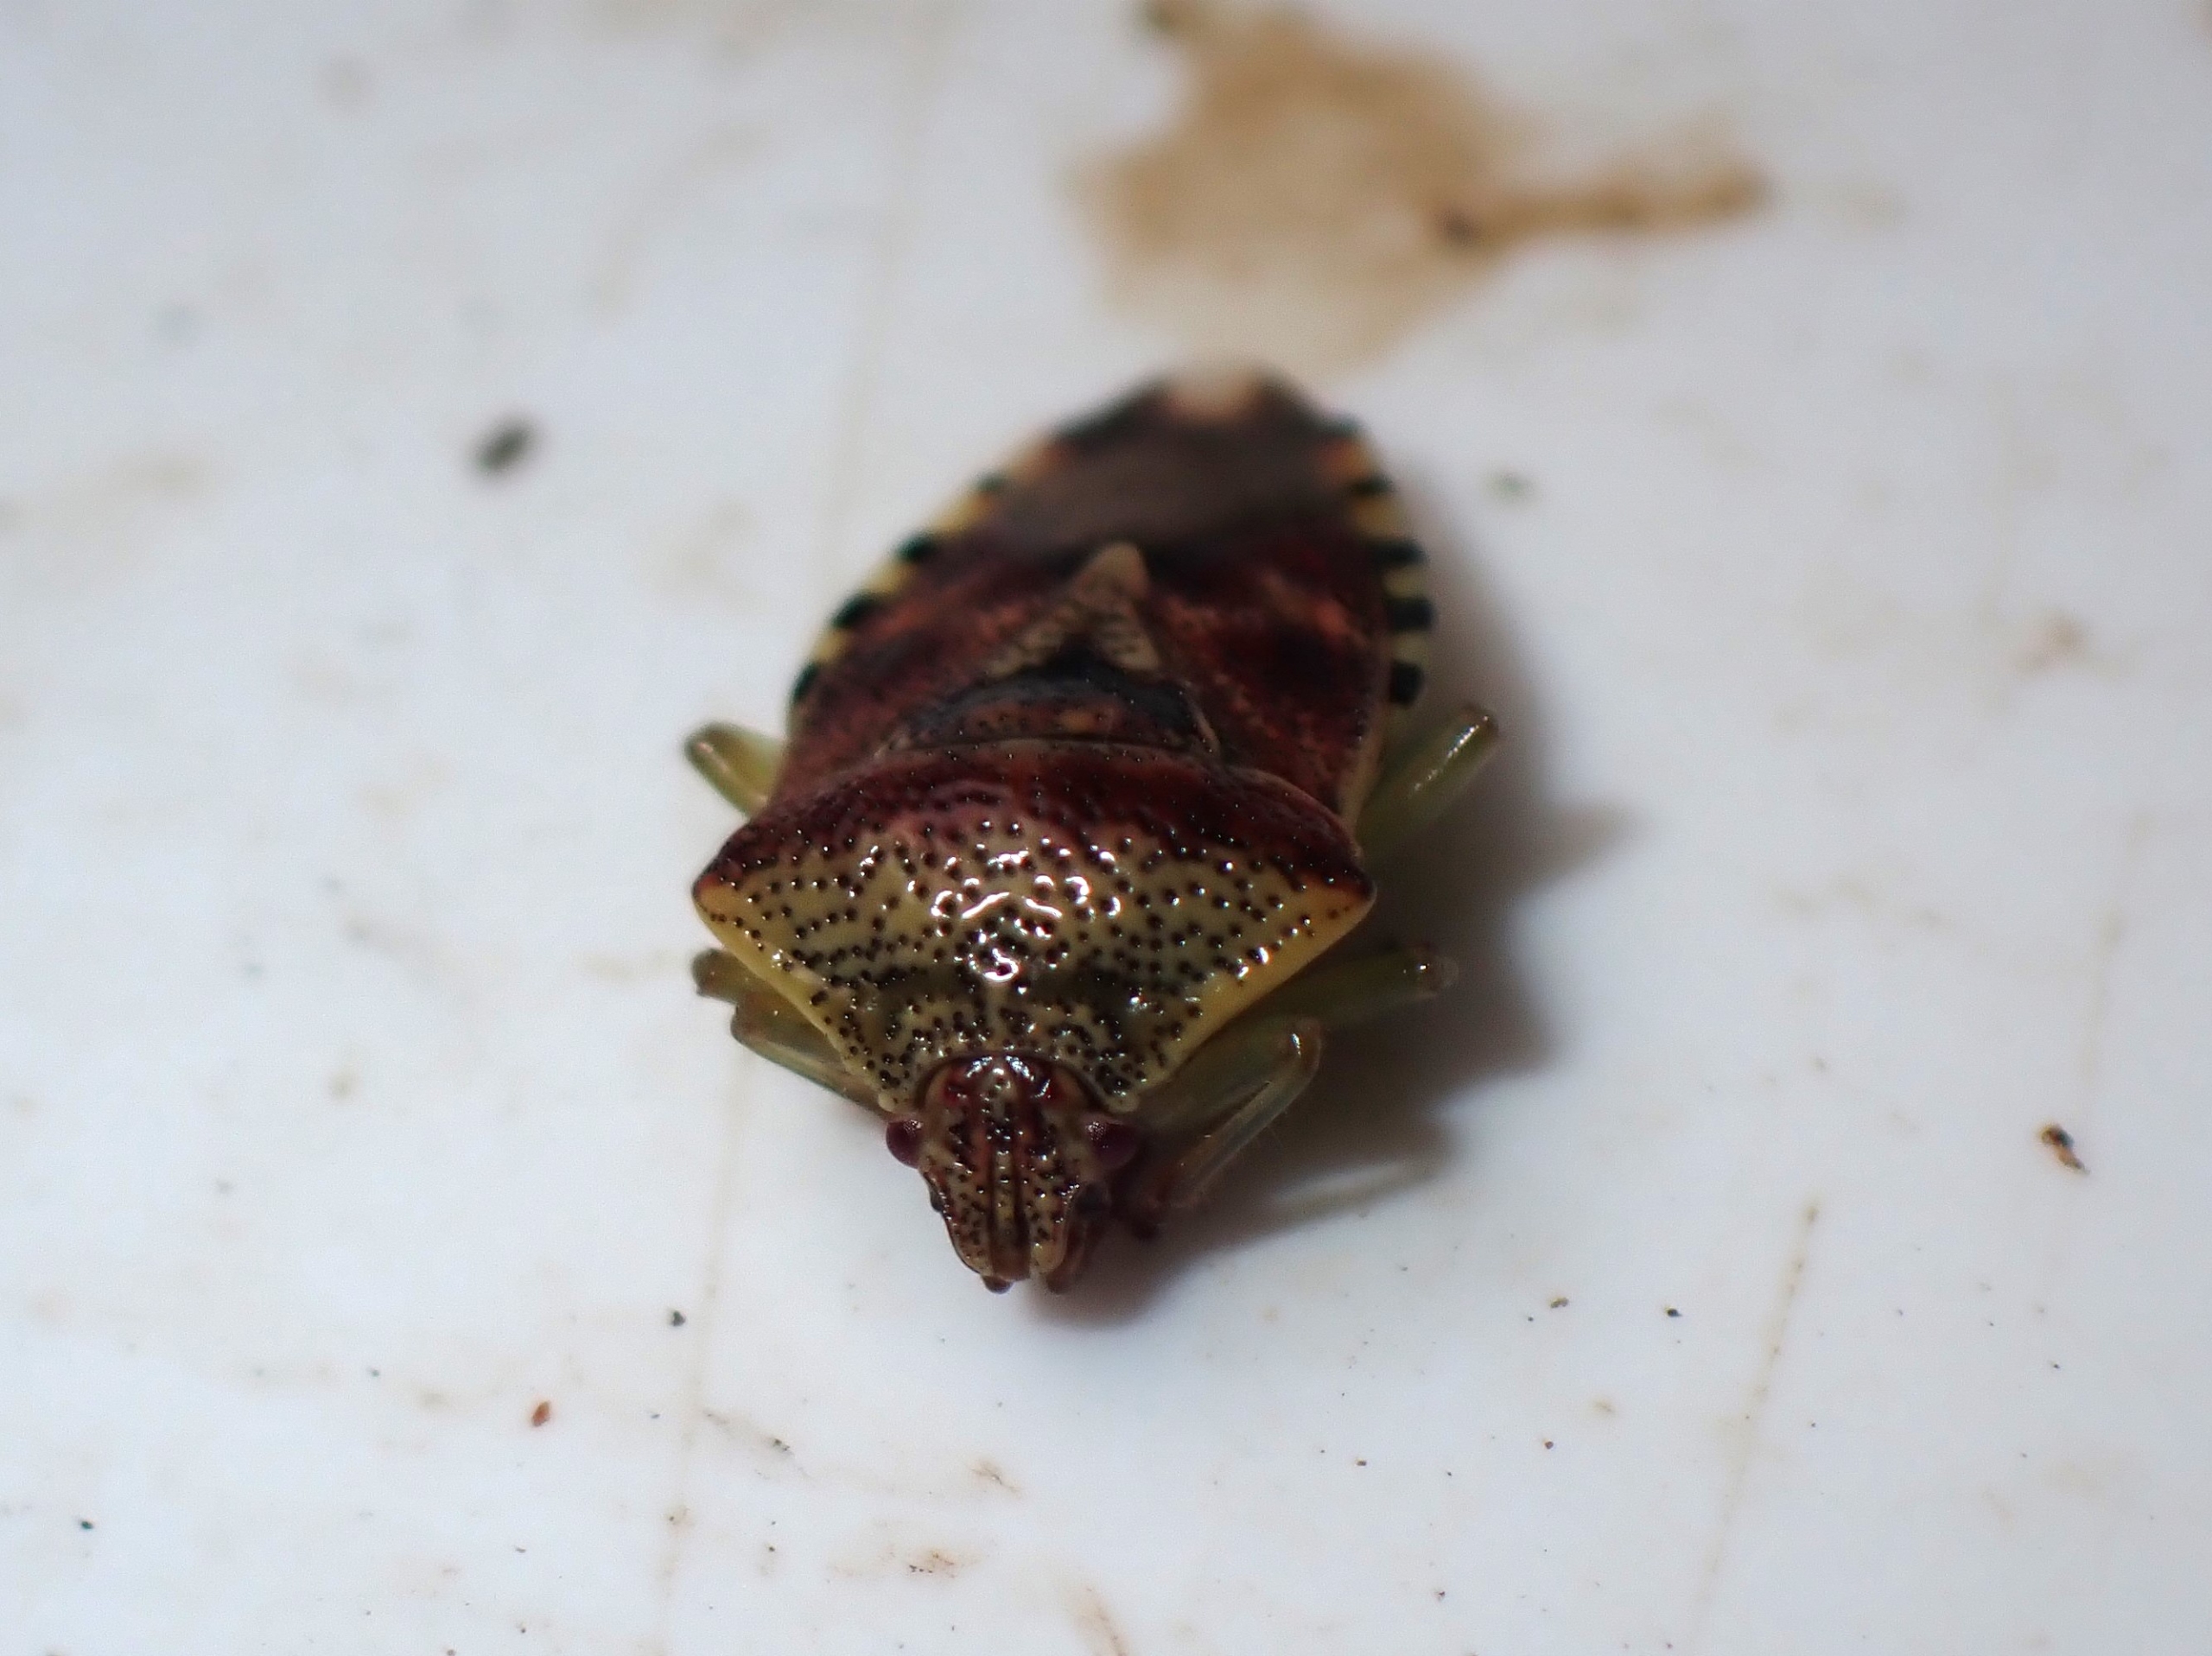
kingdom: Animalia
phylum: Arthropoda
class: Insecta
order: Hemiptera
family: Acanthosomatidae
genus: Elasmucha
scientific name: Elasmucha grisea
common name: Almindelig birketæge
